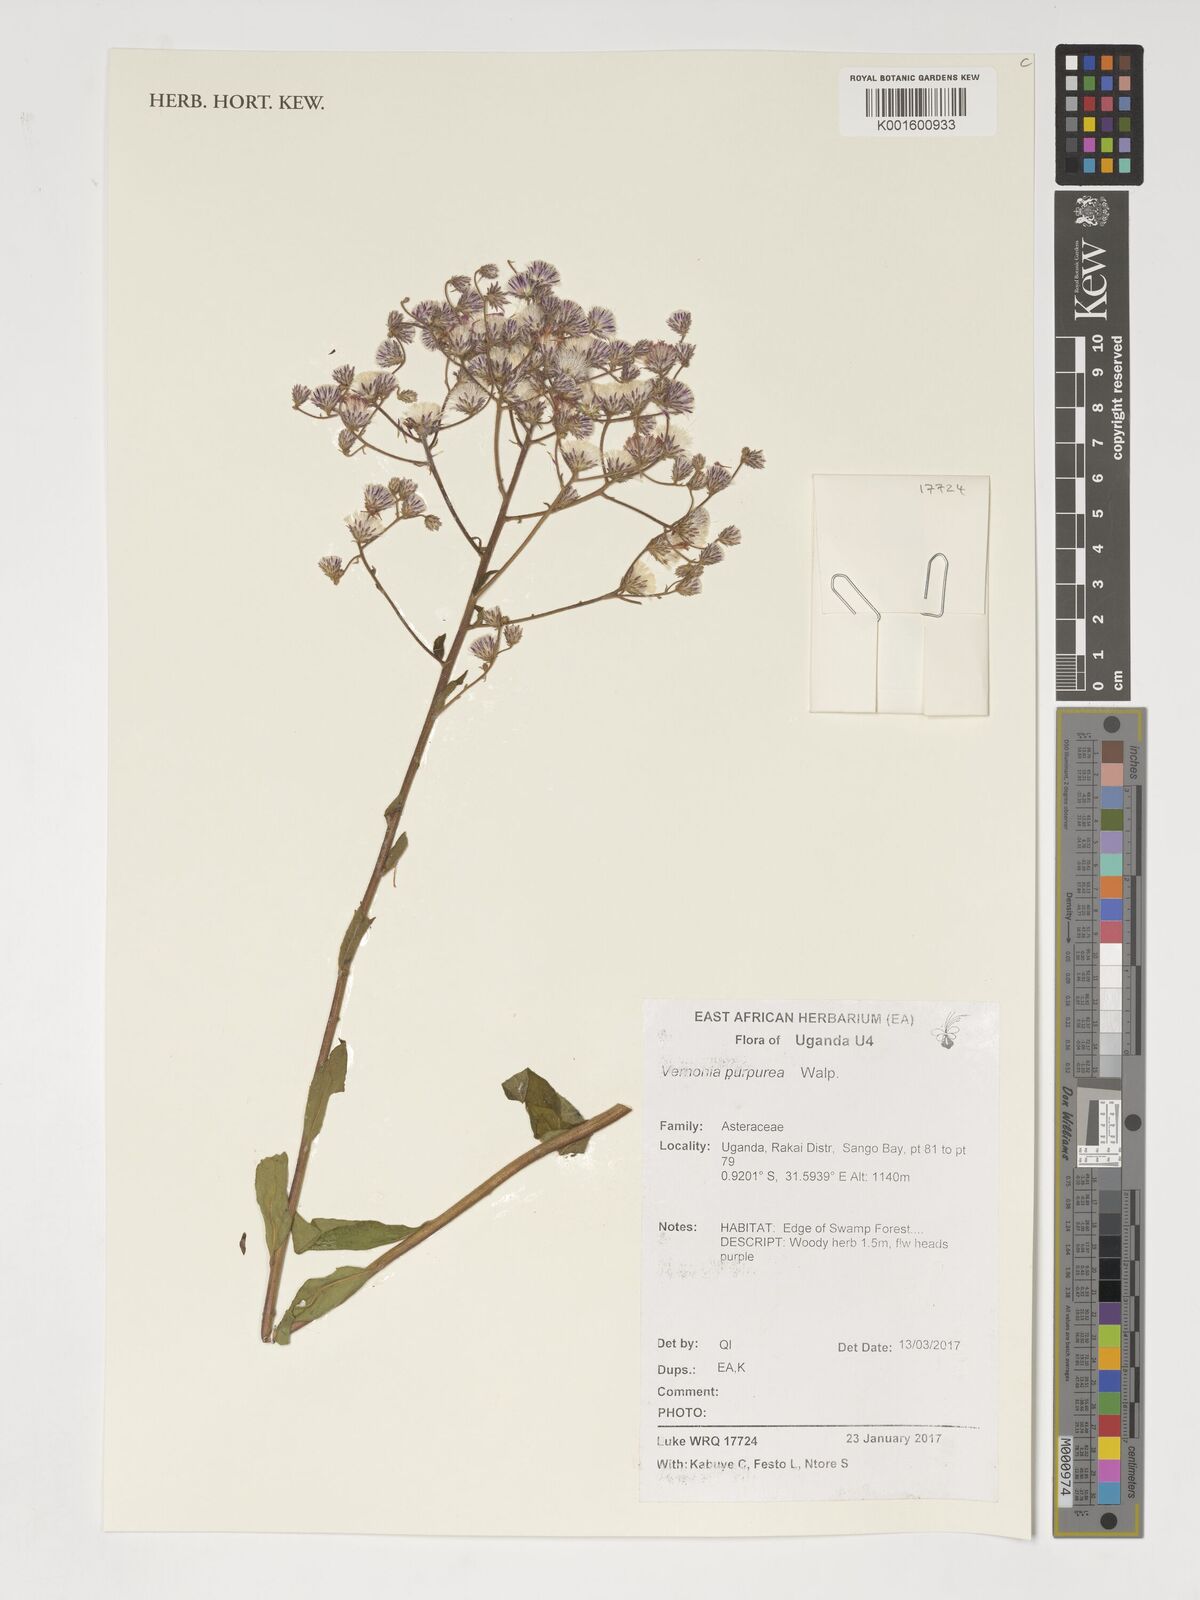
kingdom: Plantae
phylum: Tracheophyta
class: Magnoliopsida
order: Asterales
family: Asteraceae
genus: Nothovernonia
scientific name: Nothovernonia purpurea
